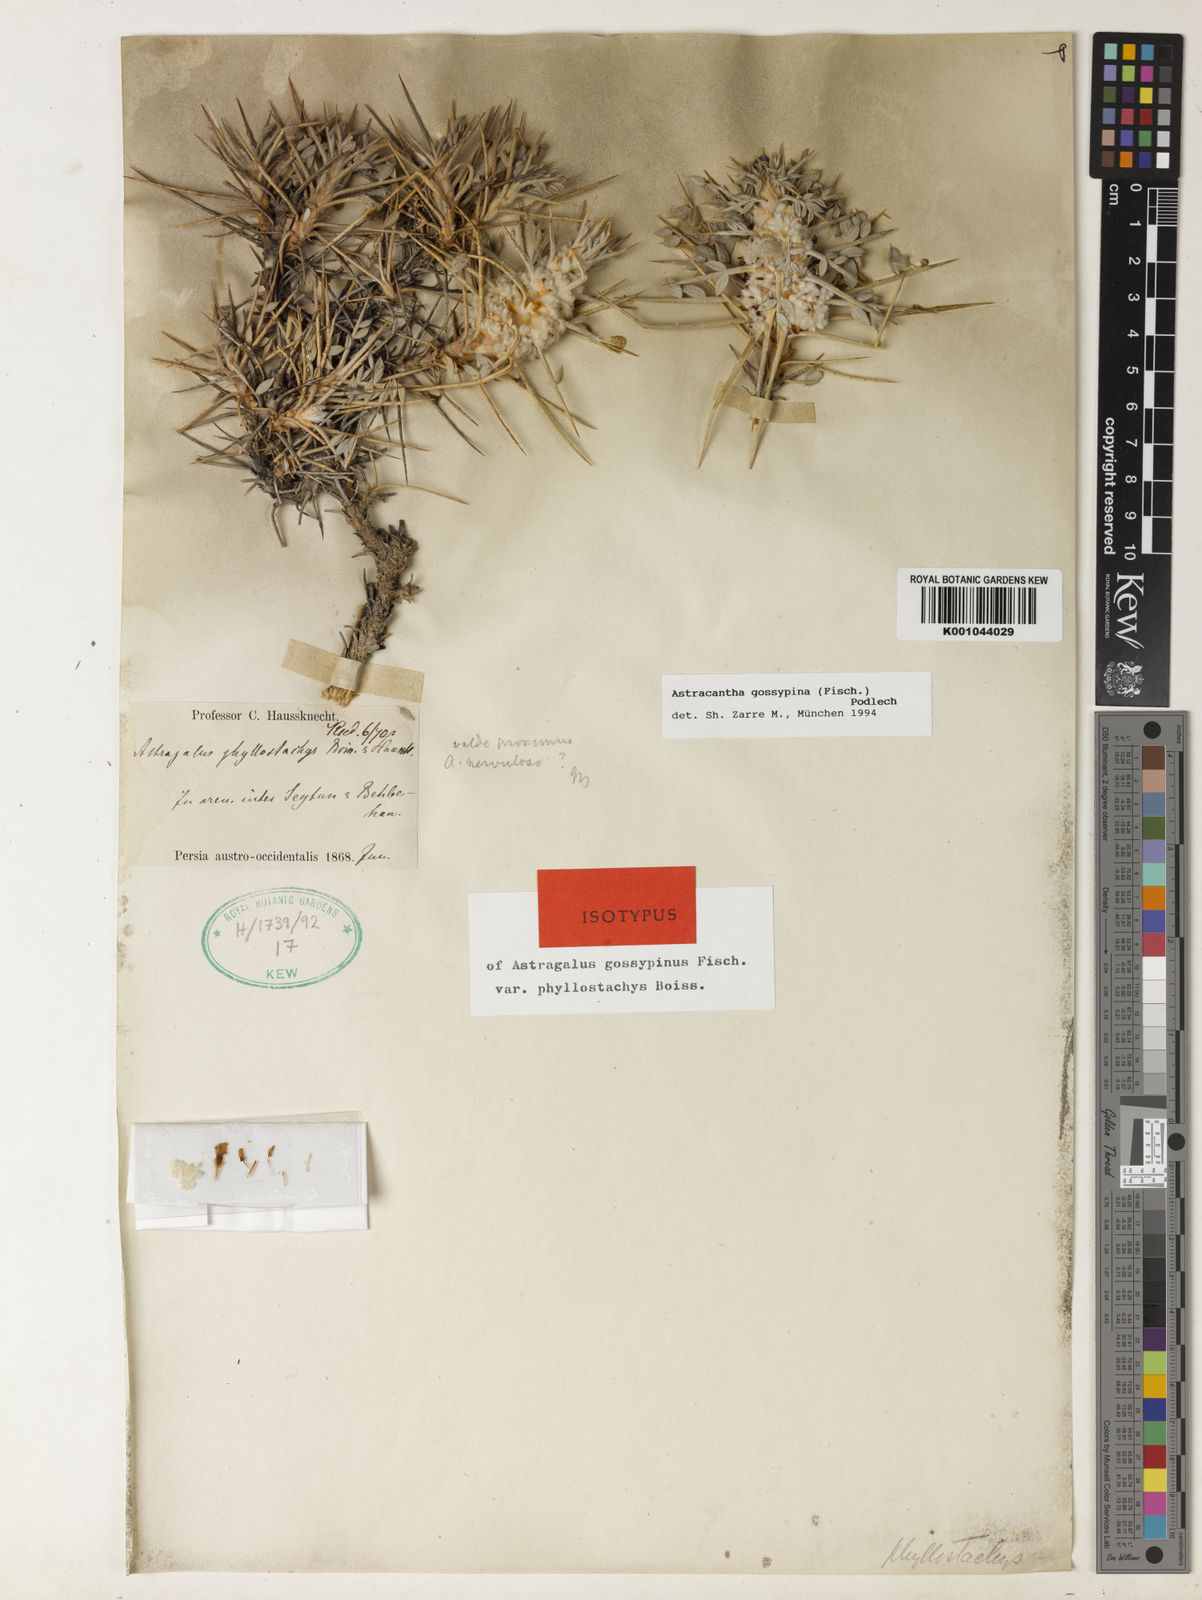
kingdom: Plantae
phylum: Tracheophyta
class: Magnoliopsida
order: Fabales
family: Fabaceae
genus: Astragalus
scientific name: Astragalus gossypinus
